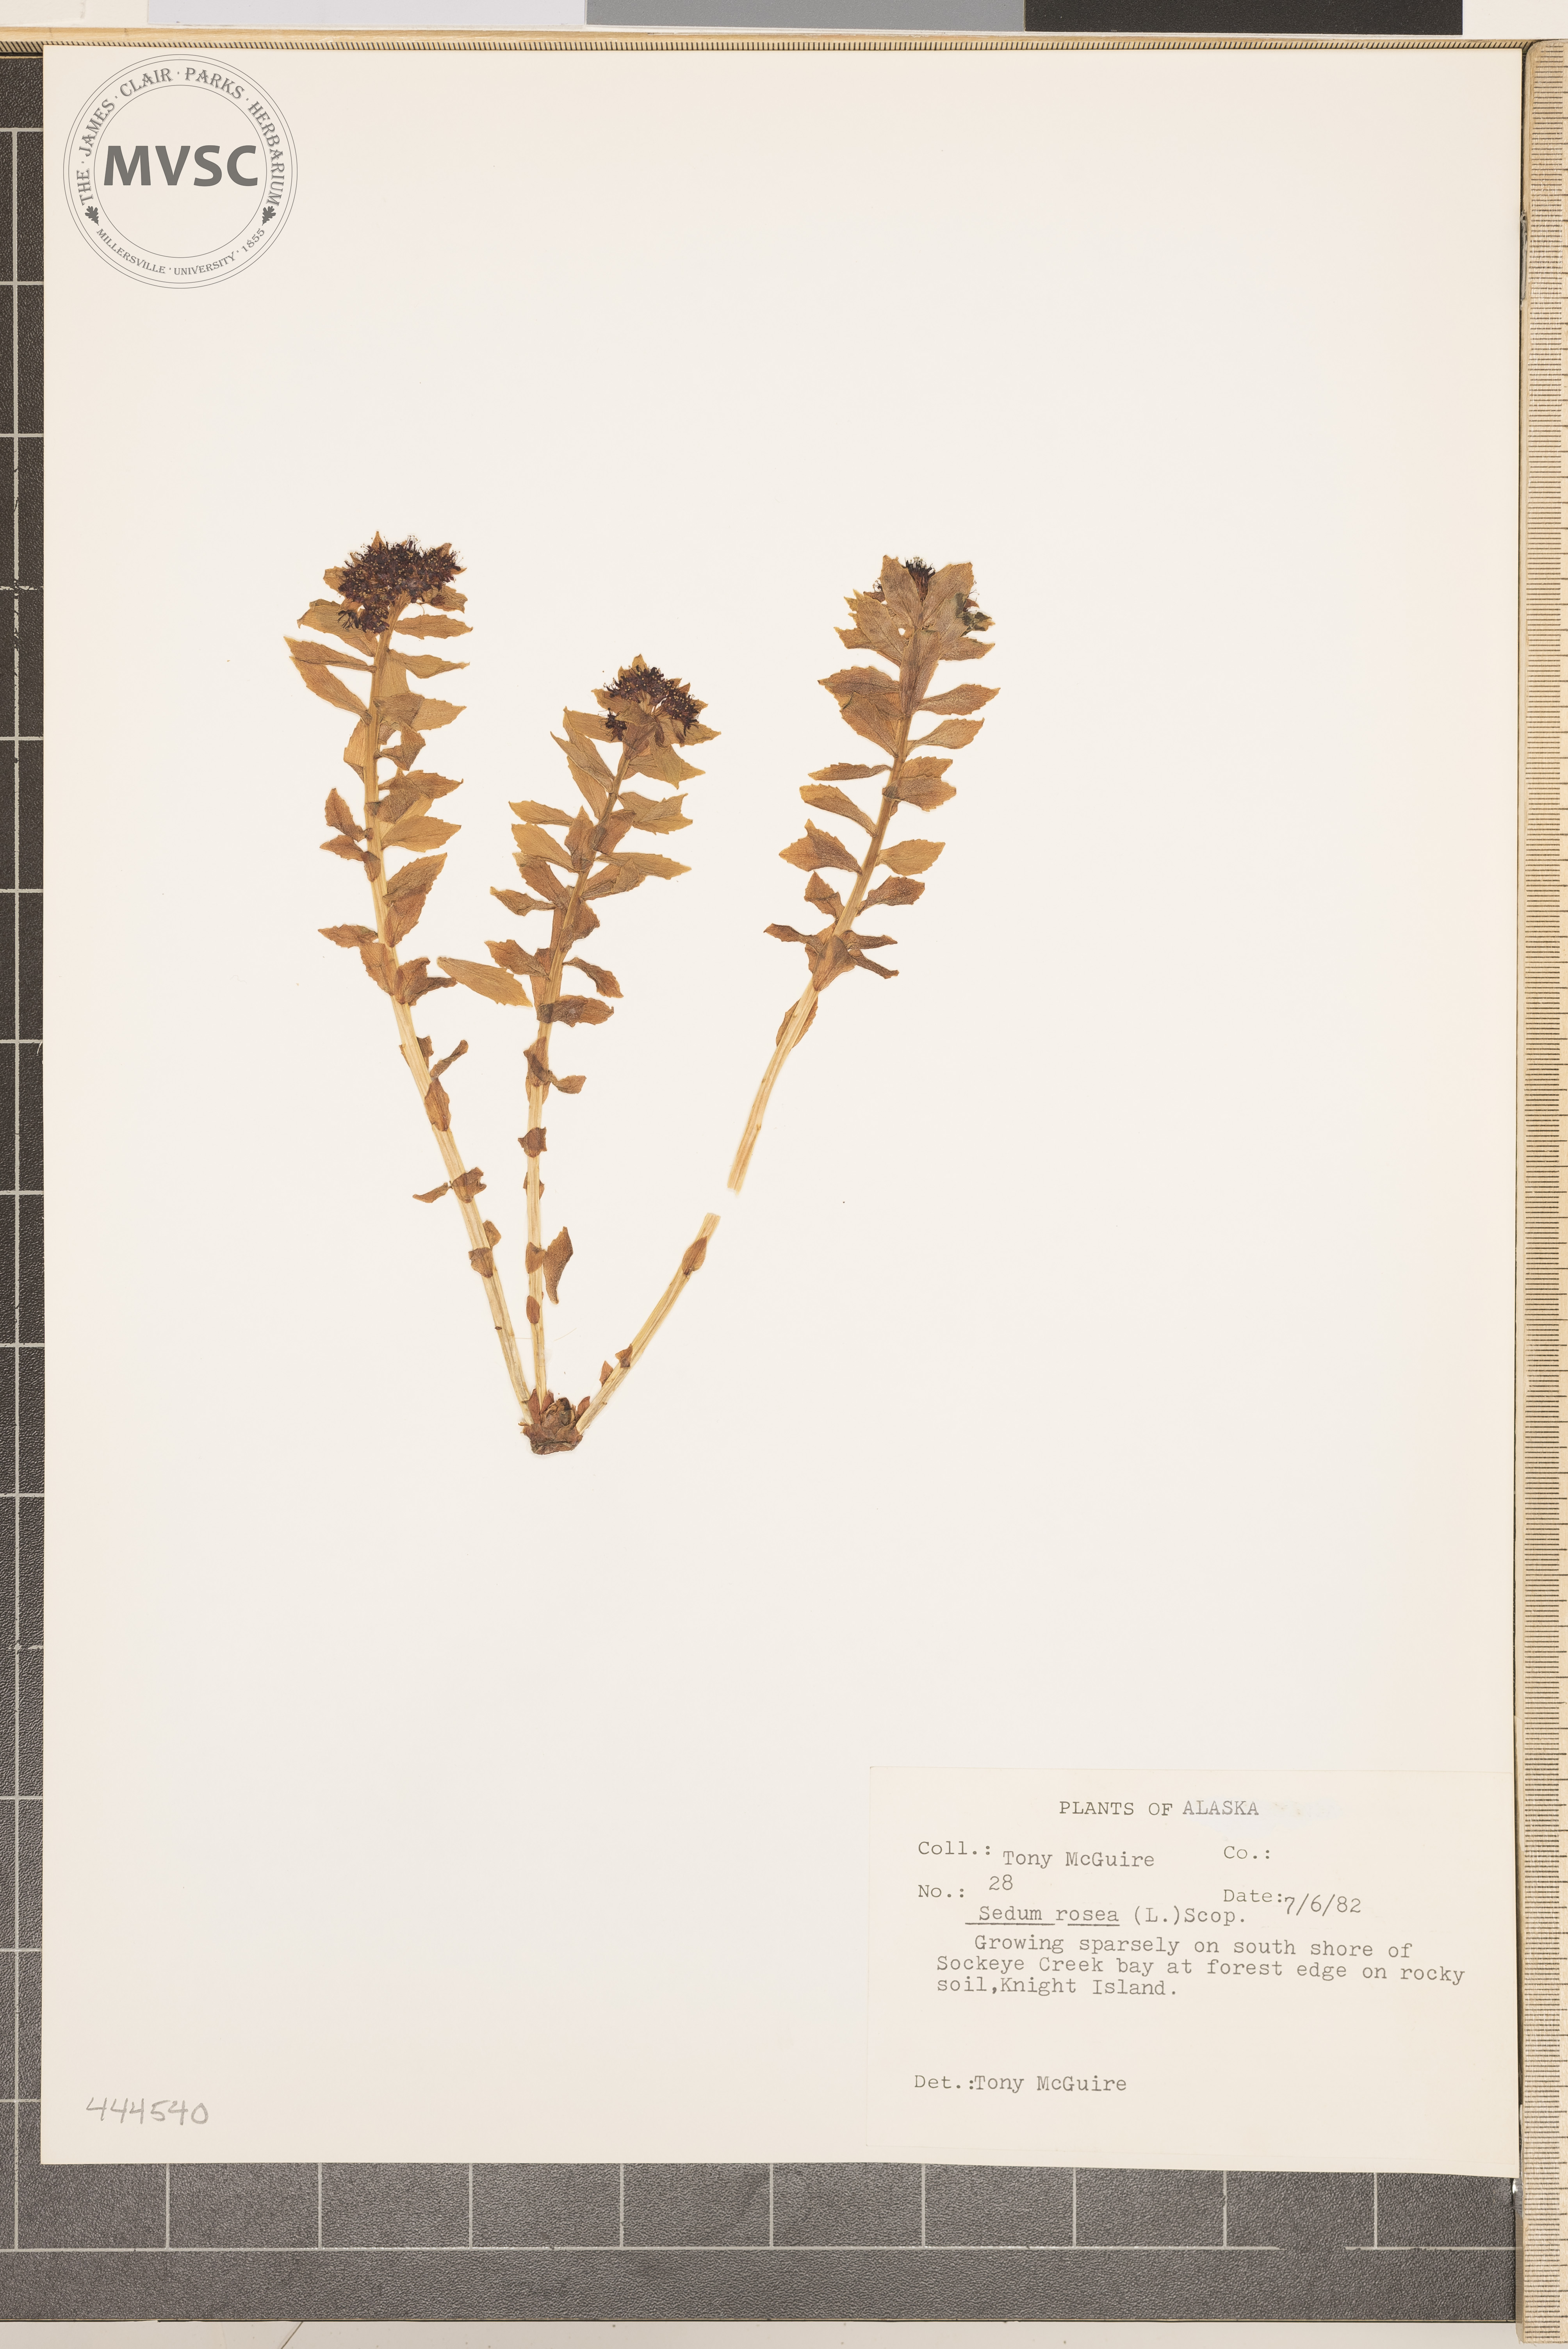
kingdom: Plantae
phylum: Tracheophyta
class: Magnoliopsida
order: Saxifragales
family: Crassulaceae
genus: Rhodiola
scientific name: Rhodiola rosea
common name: Roseroot
